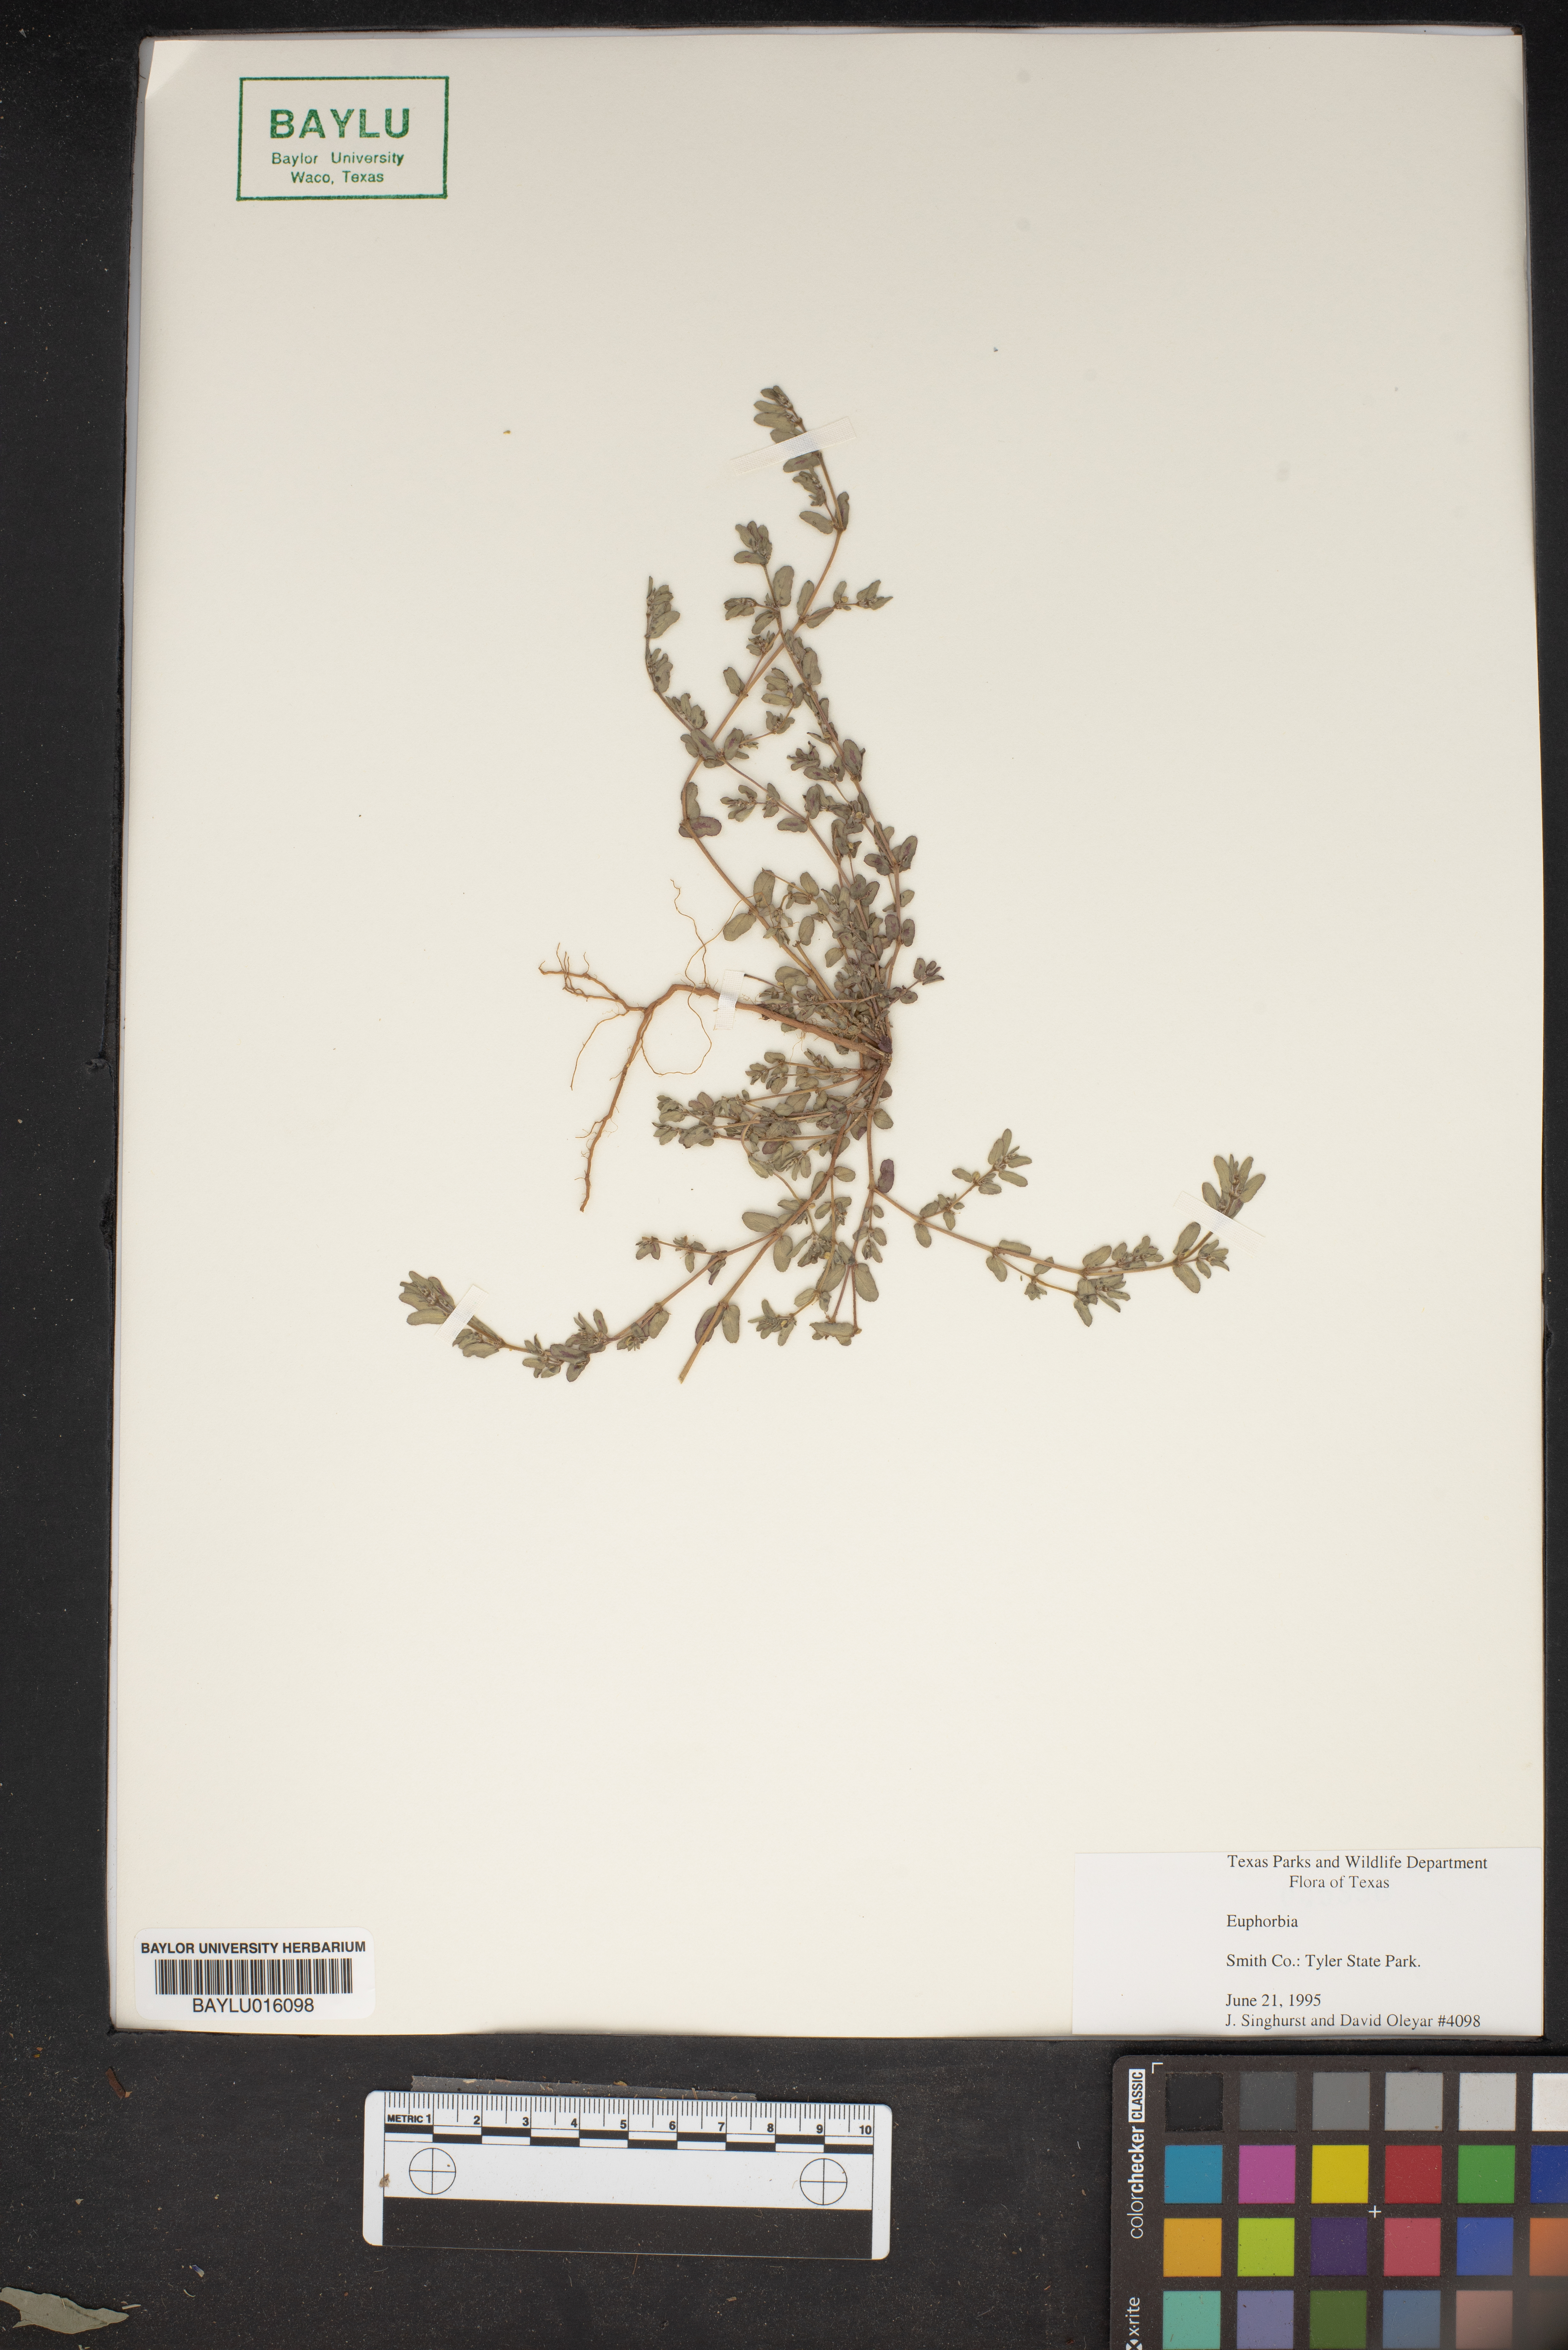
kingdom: Plantae
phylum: Tracheophyta
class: Magnoliopsida
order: Malpighiales
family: Euphorbiaceae
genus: Euphorbia
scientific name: Euphorbia
